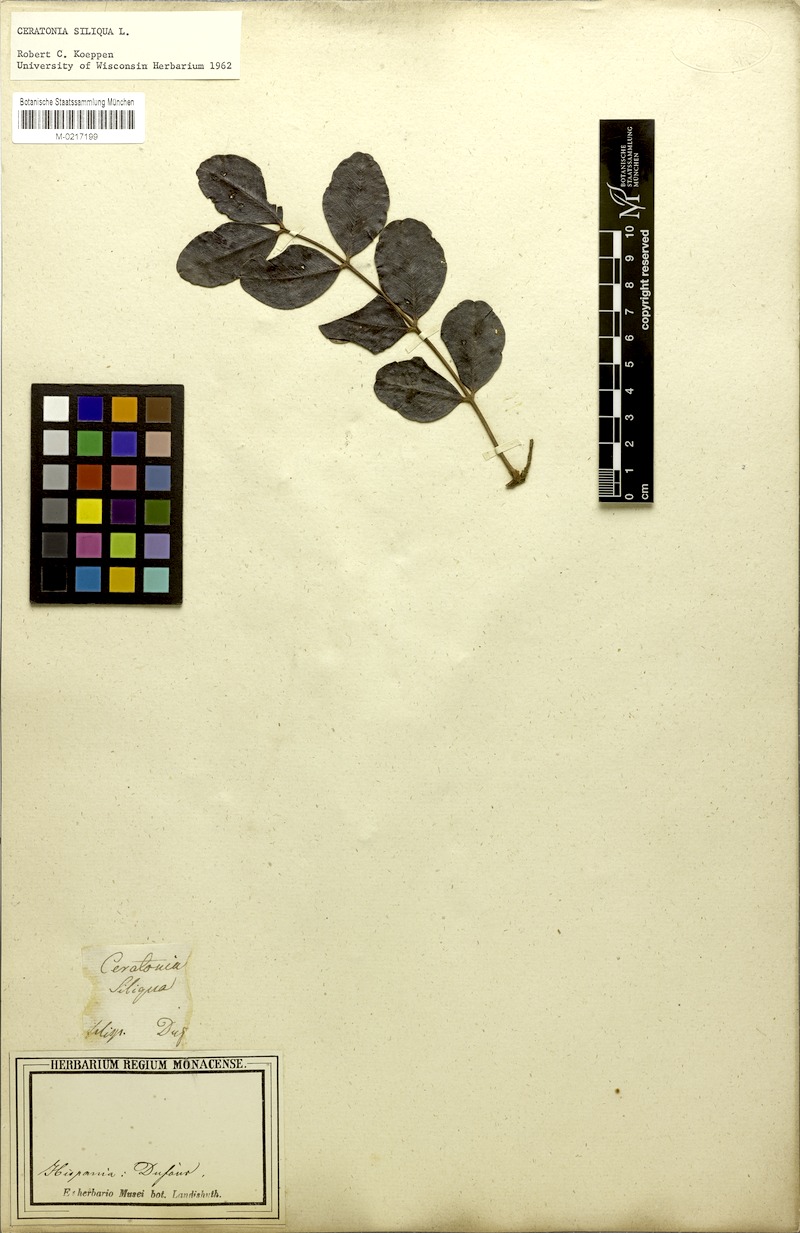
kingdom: Plantae
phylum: Tracheophyta
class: Magnoliopsida
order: Fabales
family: Fabaceae
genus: Ceratonia
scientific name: Ceratonia siliqua
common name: Carob
